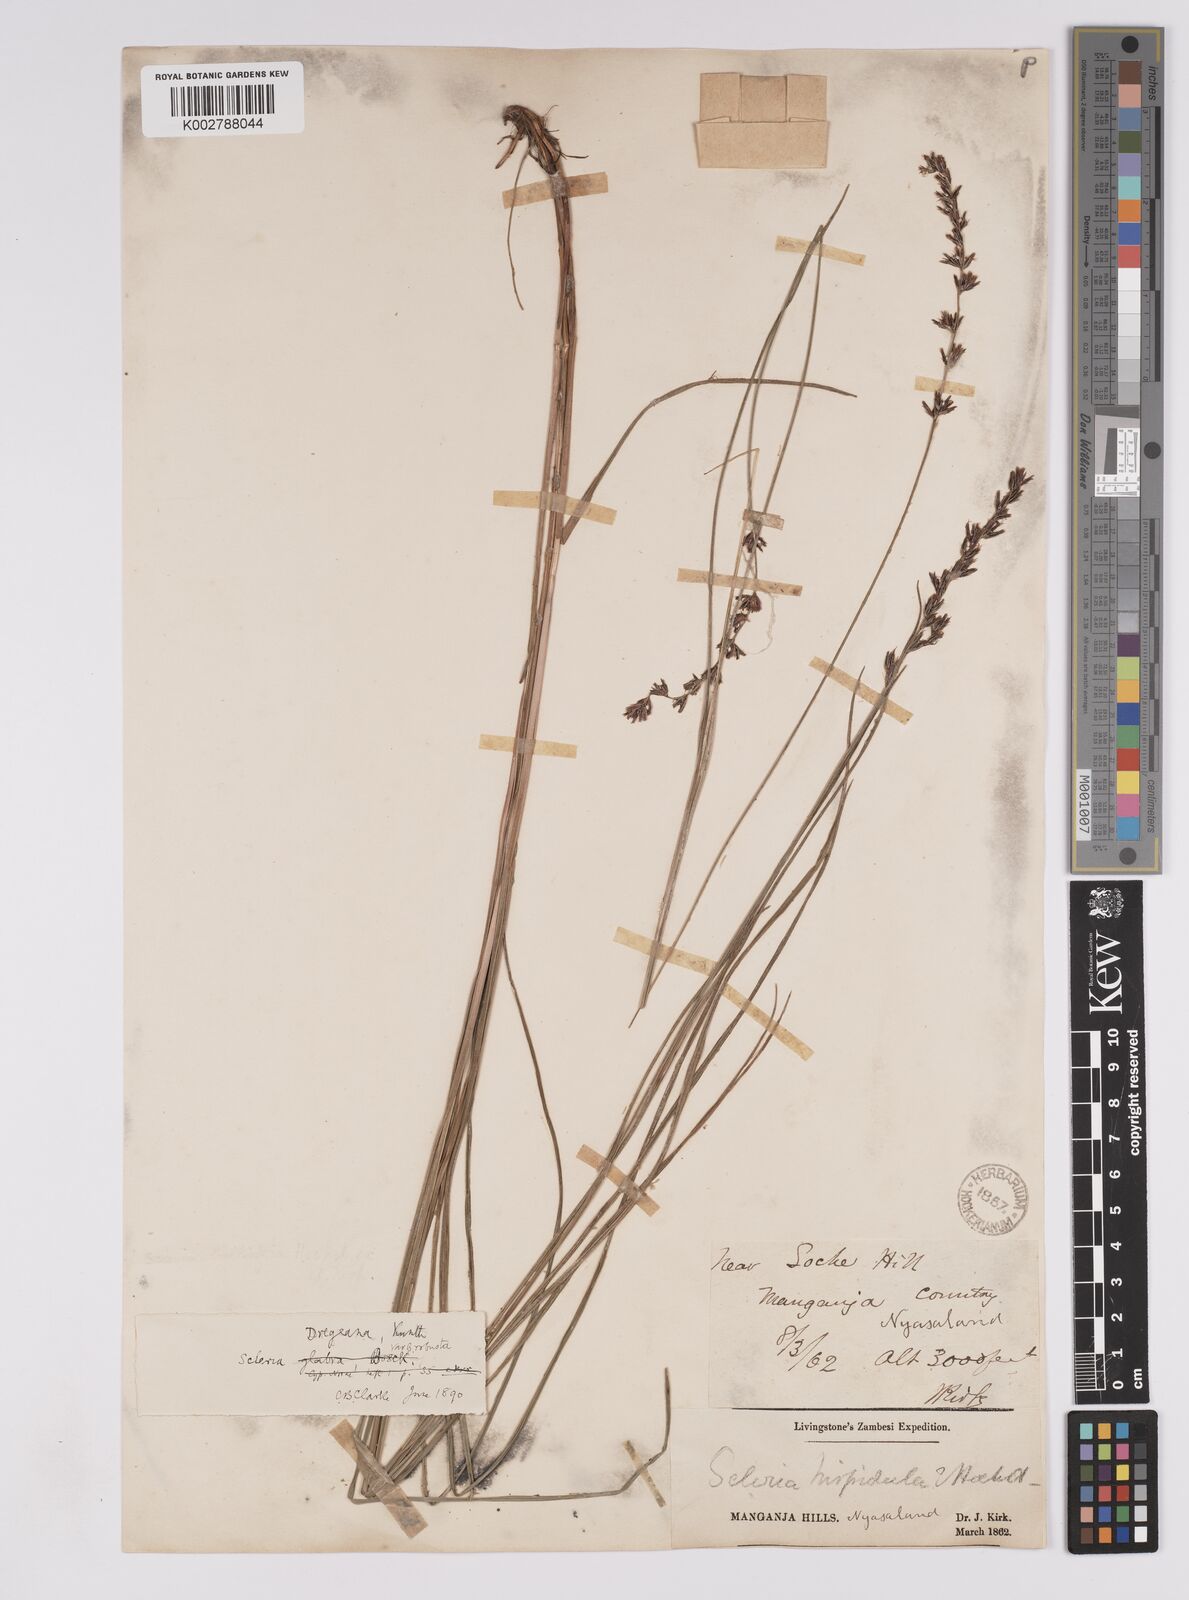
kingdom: Plantae
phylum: Tracheophyta
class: Liliopsida
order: Poales
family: Cyperaceae
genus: Scleria
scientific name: Scleria dregeana
